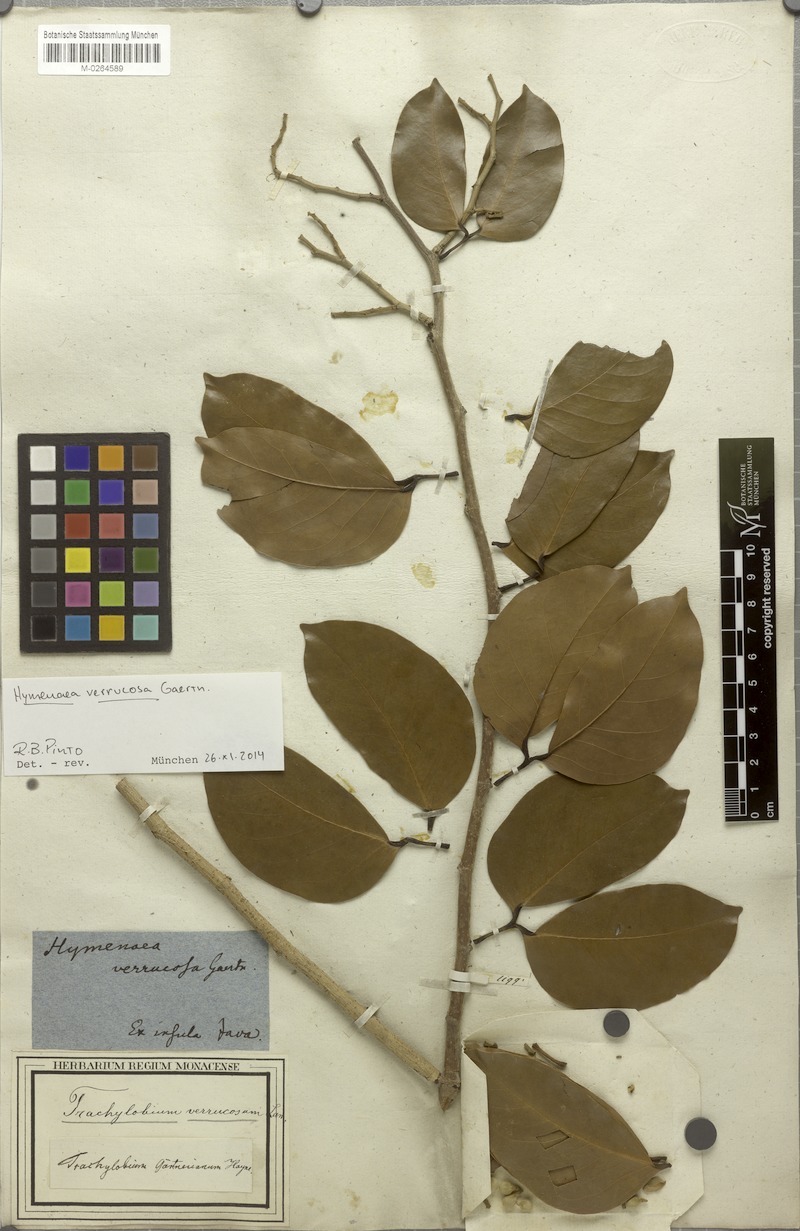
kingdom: Plantae
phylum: Tracheophyta
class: Magnoliopsida
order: Fabales
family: Fabaceae
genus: Hymenaea
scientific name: Hymenaea verrucosa
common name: East african copal
